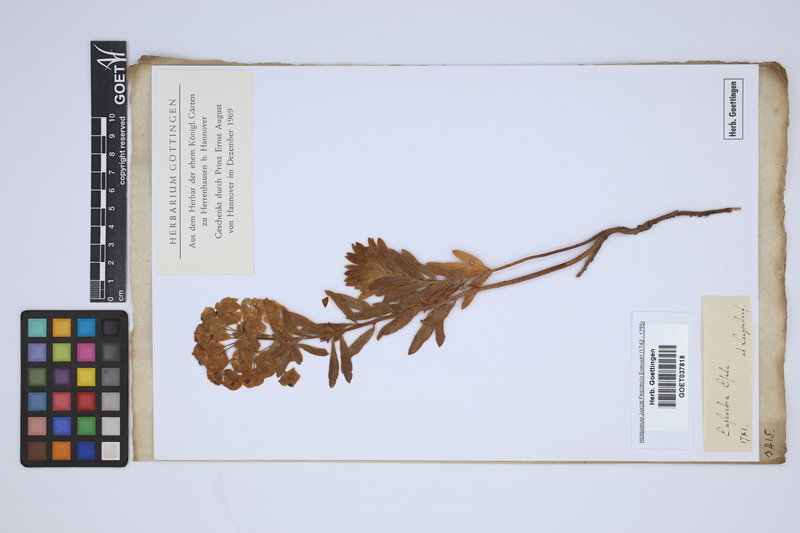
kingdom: Plantae
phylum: Tracheophyta
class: Magnoliopsida
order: Malpighiales
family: Euphorbiaceae
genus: Euphorbia
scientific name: Euphorbia esula
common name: Leafy spurge
